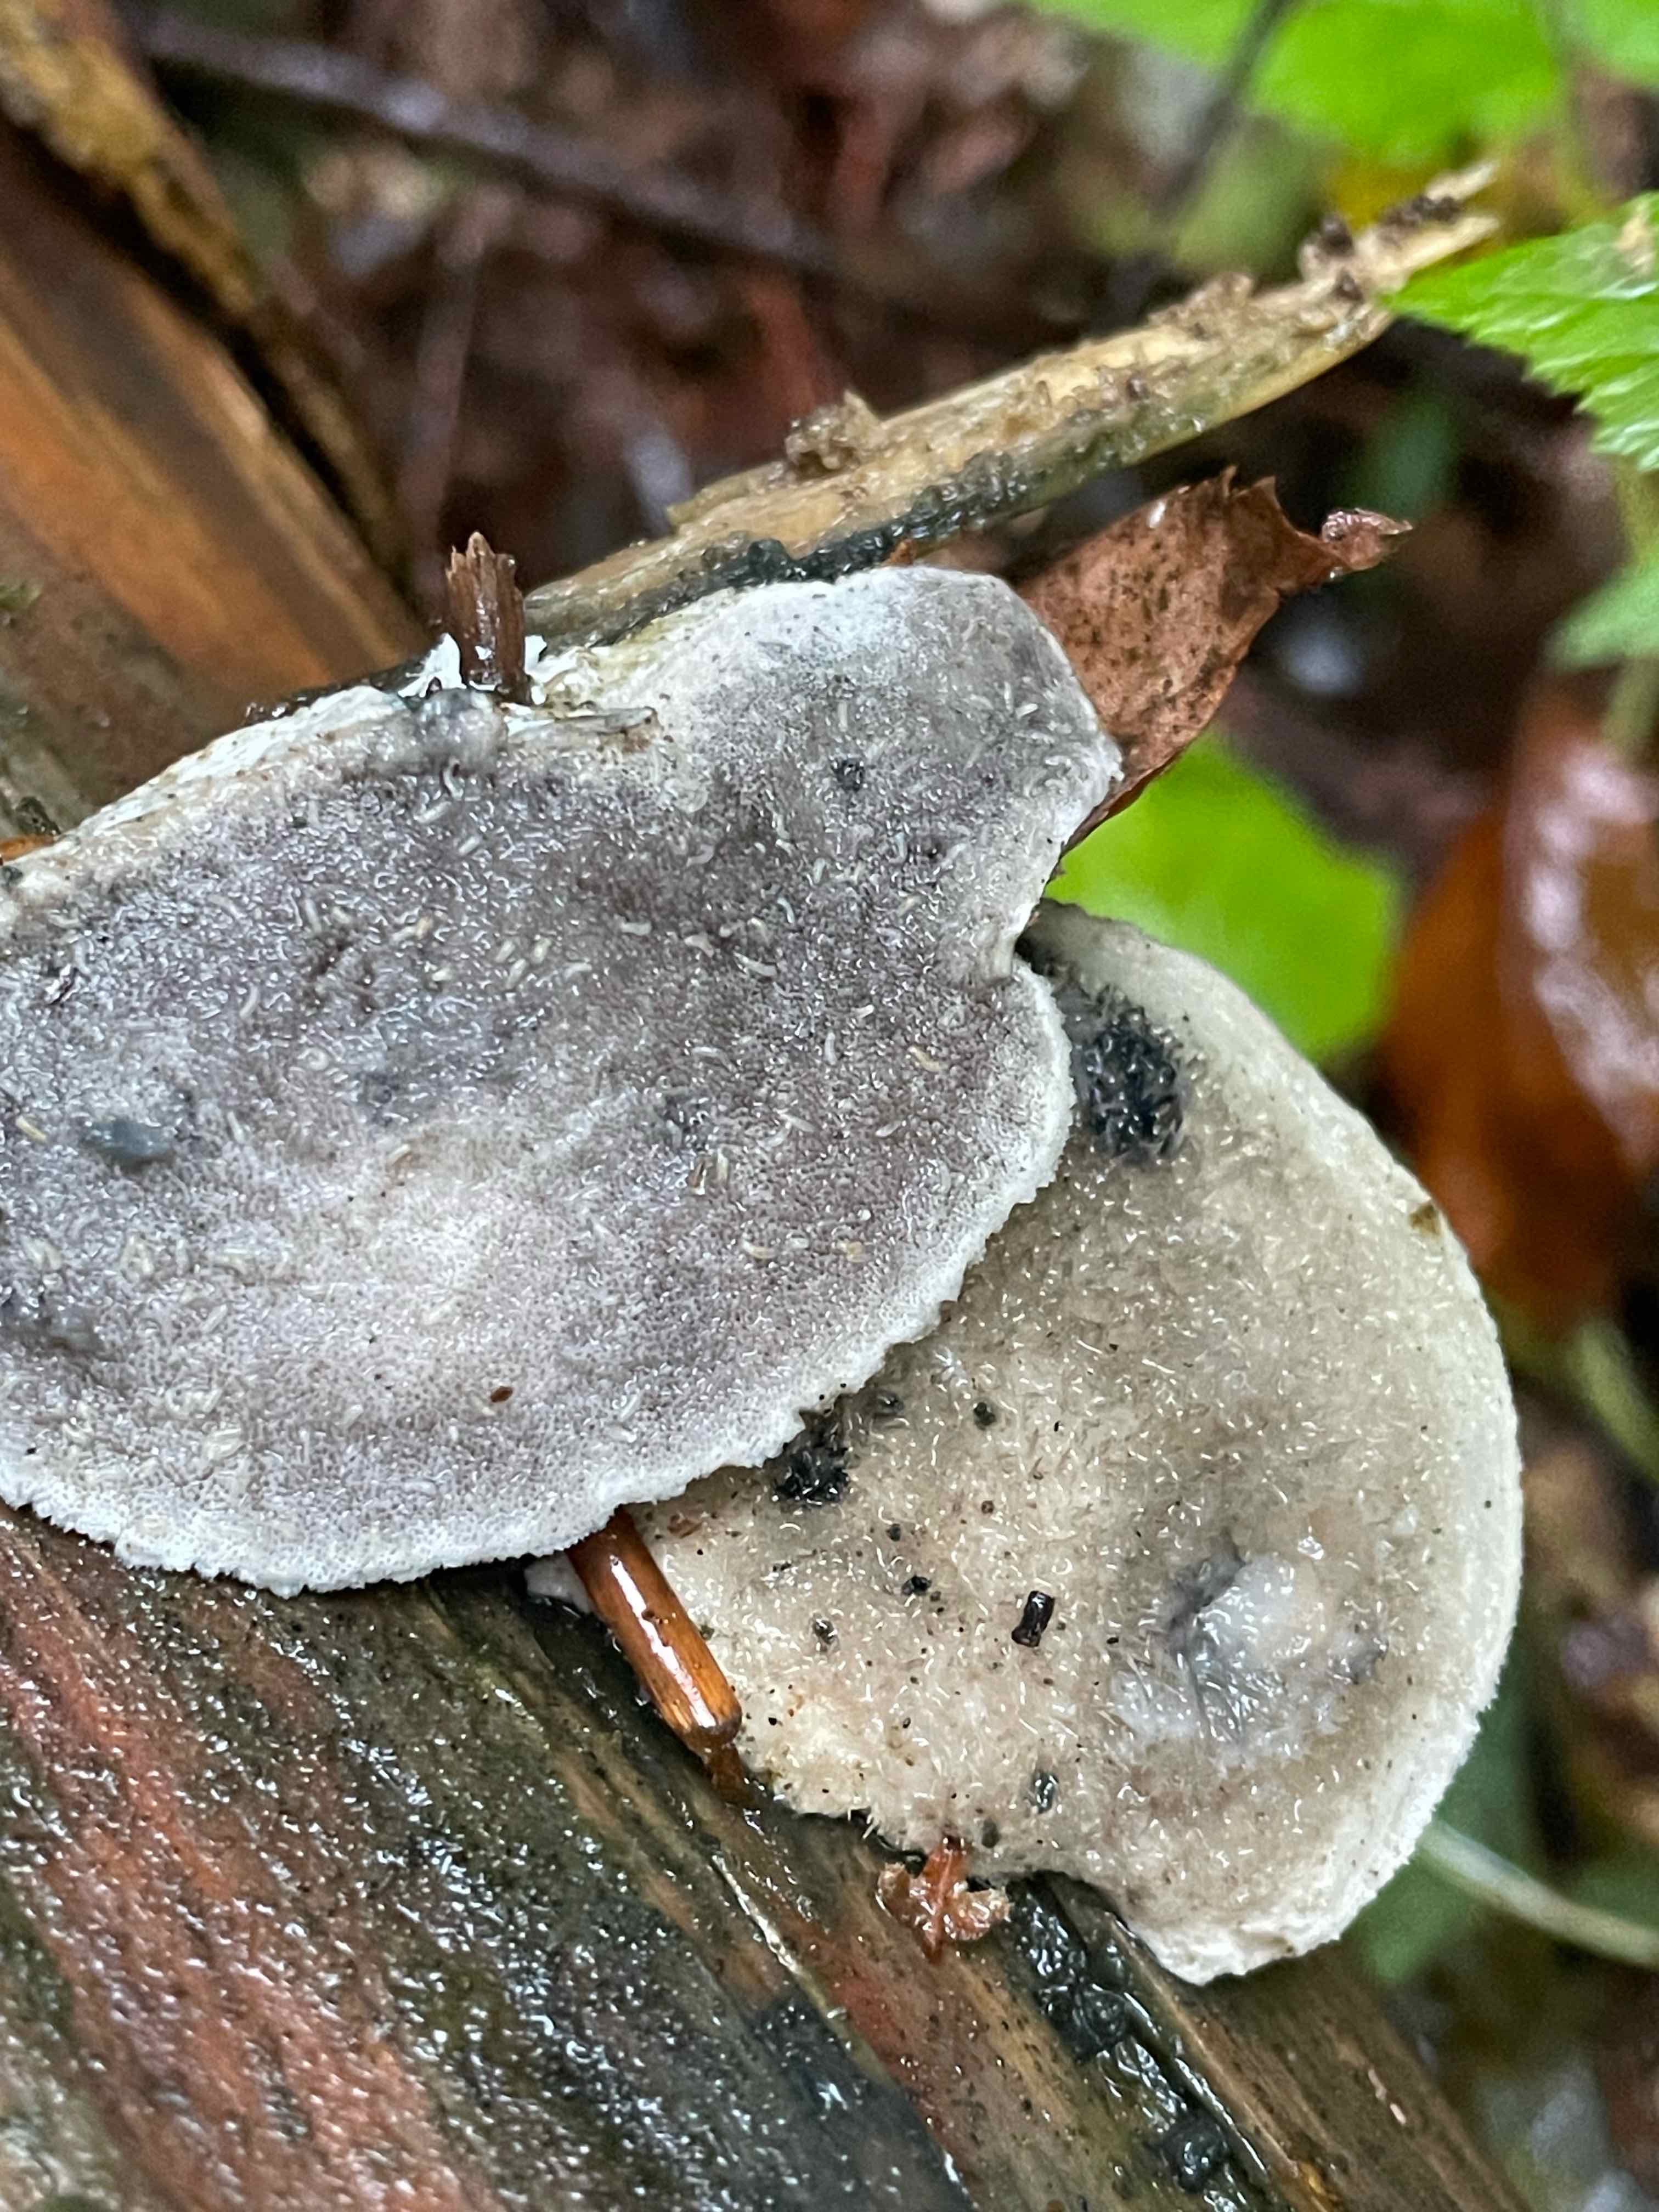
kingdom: Fungi
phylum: Basidiomycota
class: Agaricomycetes
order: Polyporales
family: Polyporaceae
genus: Cyanosporus
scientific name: Cyanosporus caesius
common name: blålig kødporesvamp
